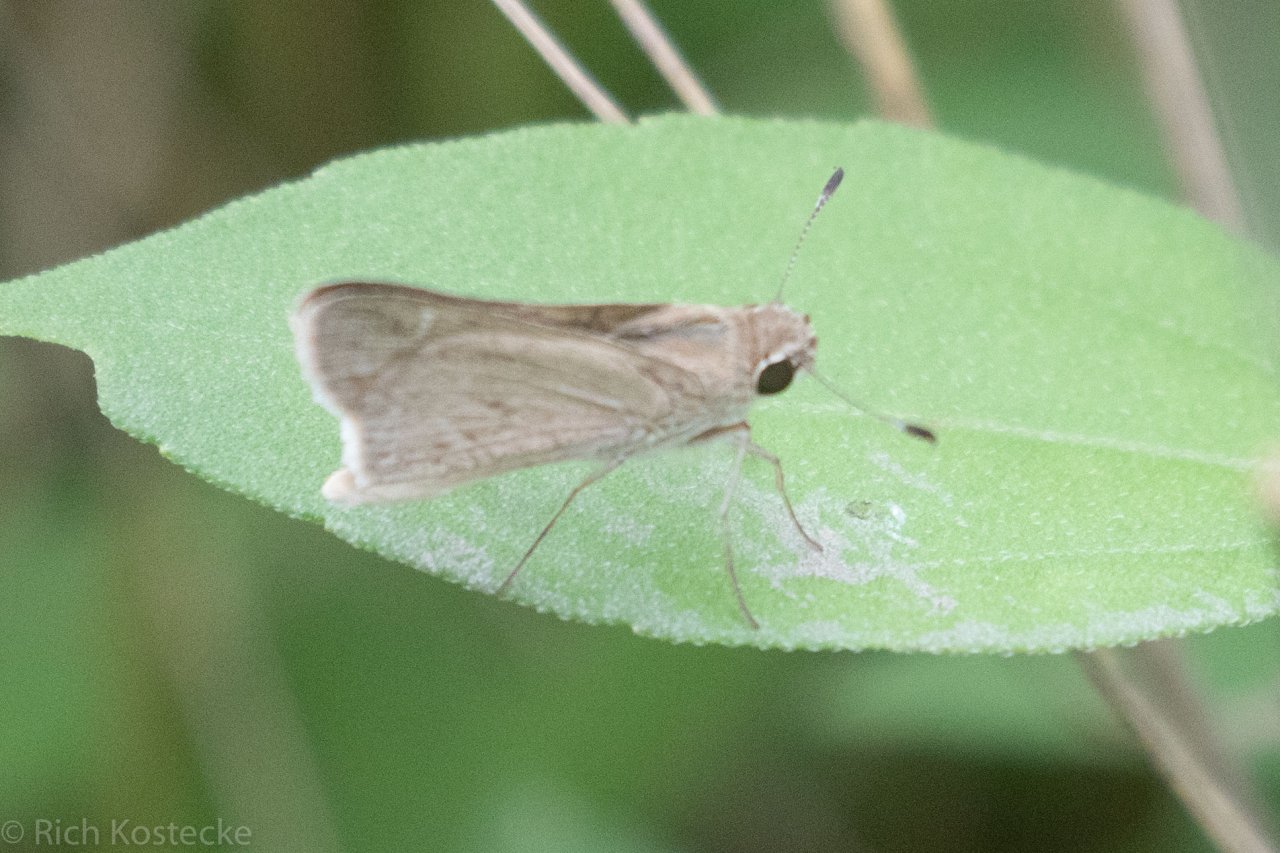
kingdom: Animalia
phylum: Arthropoda
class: Insecta
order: Lepidoptera
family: Hesperiidae
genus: Lerodea
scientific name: Lerodea eufala
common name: Eufala Skipper
